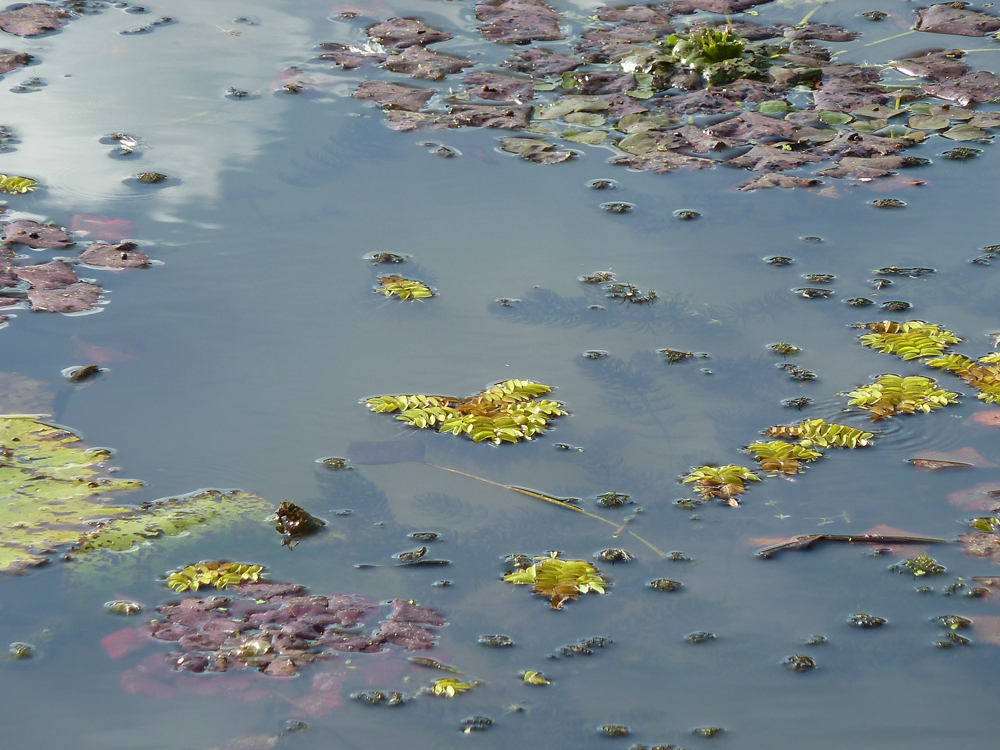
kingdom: Plantae
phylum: Tracheophyta
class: Magnoliopsida
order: Myrtales
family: Lythraceae
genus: Trapa
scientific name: Trapa natans
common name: Water chestnut
